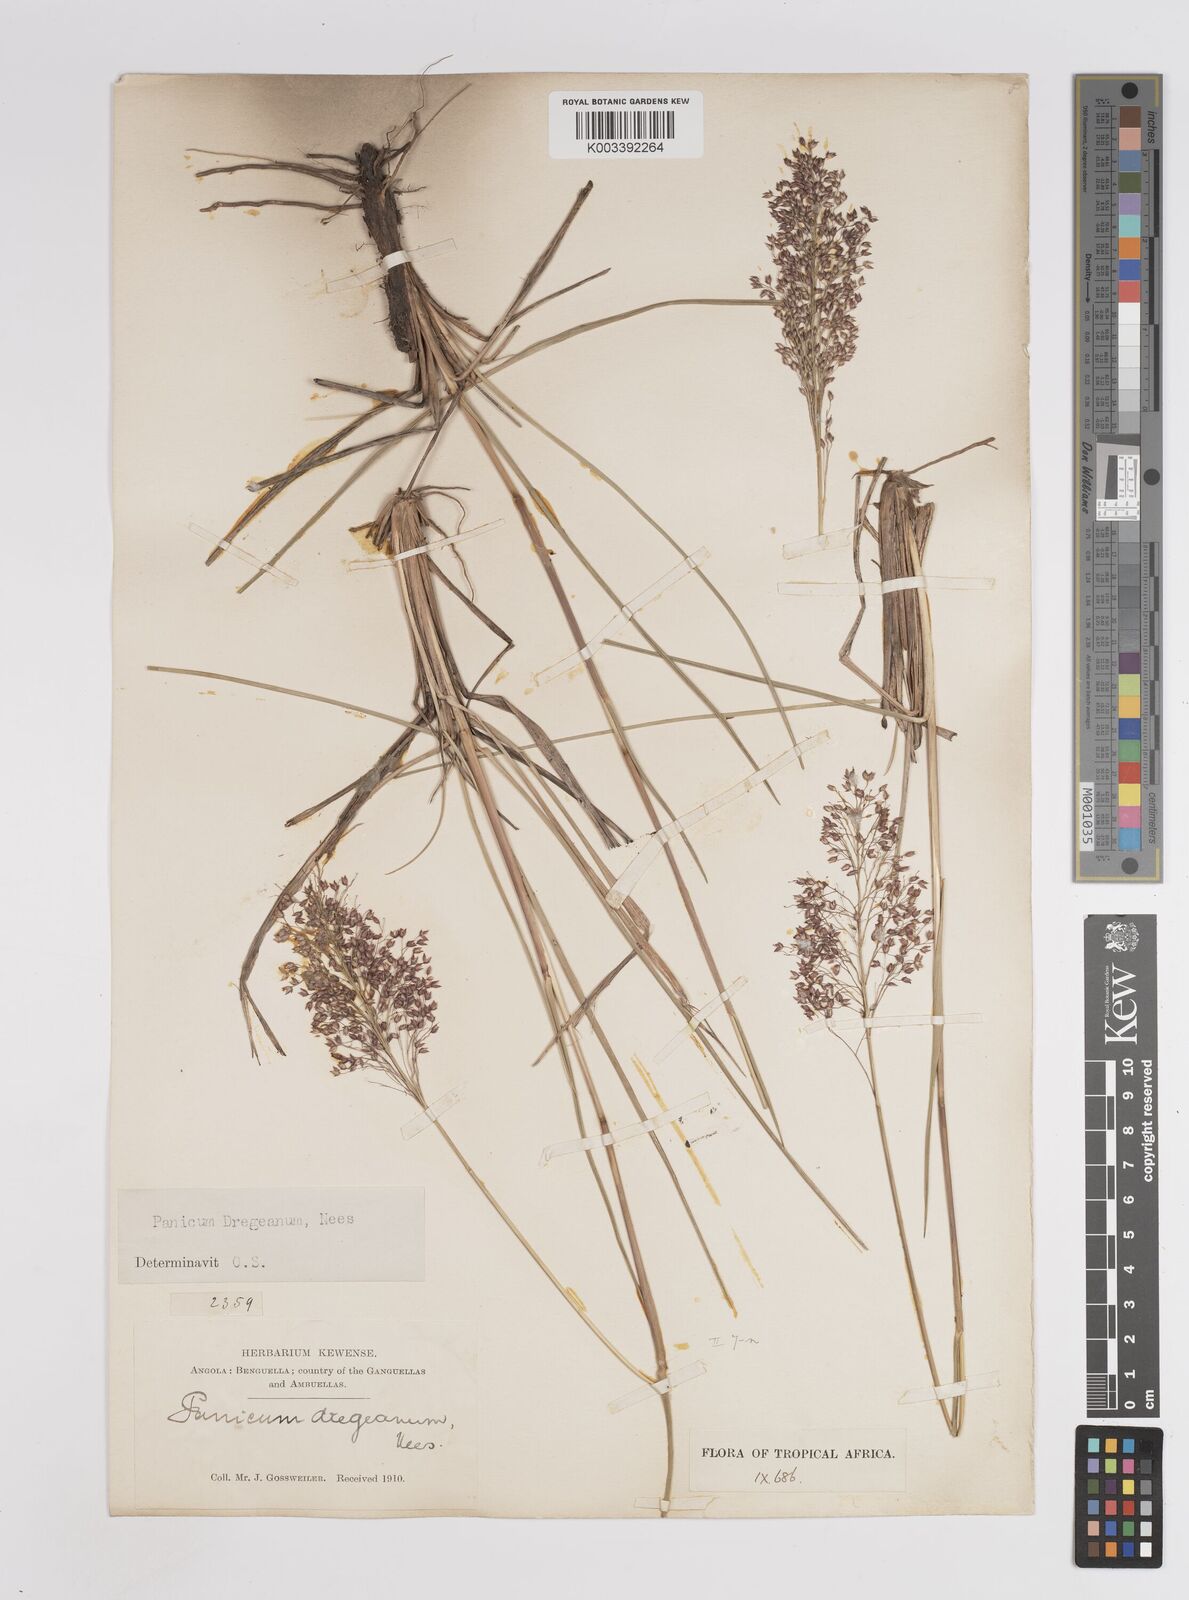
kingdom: Plantae
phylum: Tracheophyta
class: Liliopsida
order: Poales
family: Poaceae
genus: Panicum
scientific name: Panicum dregeanum
